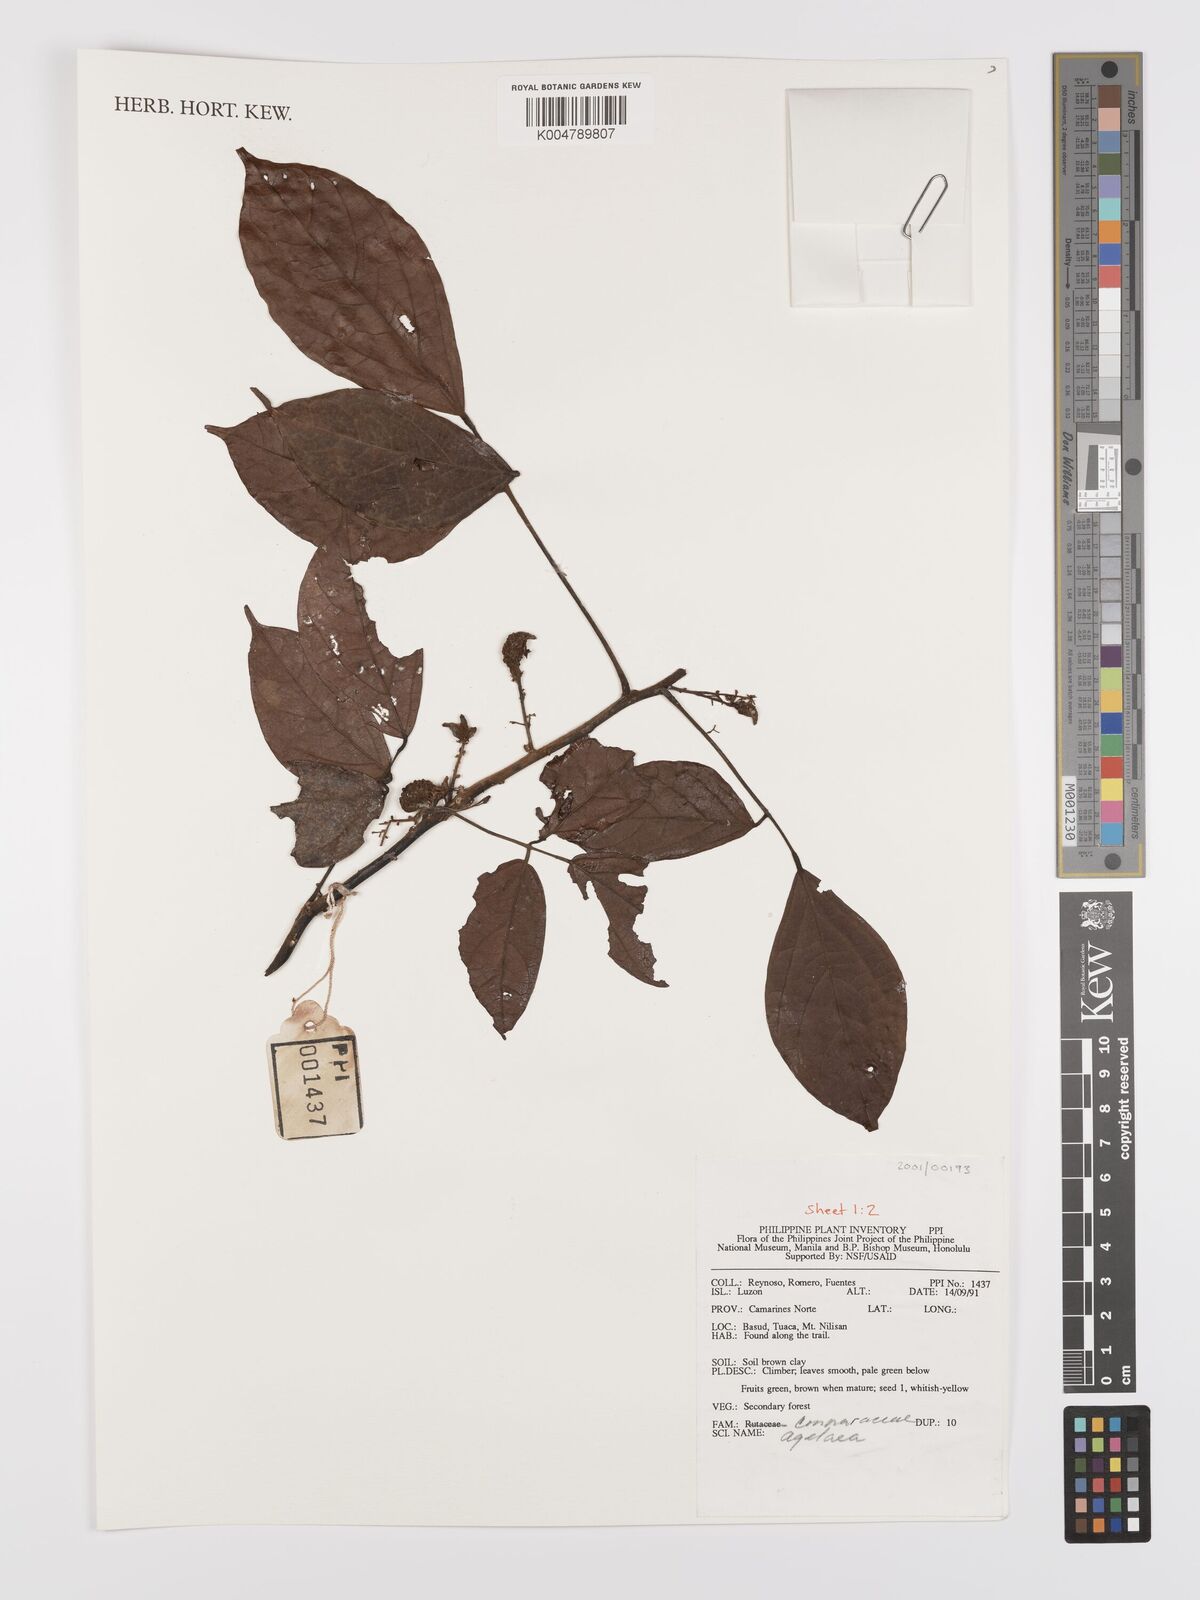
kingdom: Plantae
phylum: Tracheophyta
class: Magnoliopsida
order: Oxalidales
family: Connaraceae
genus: Agelaea
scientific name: Agelaea borneensis
